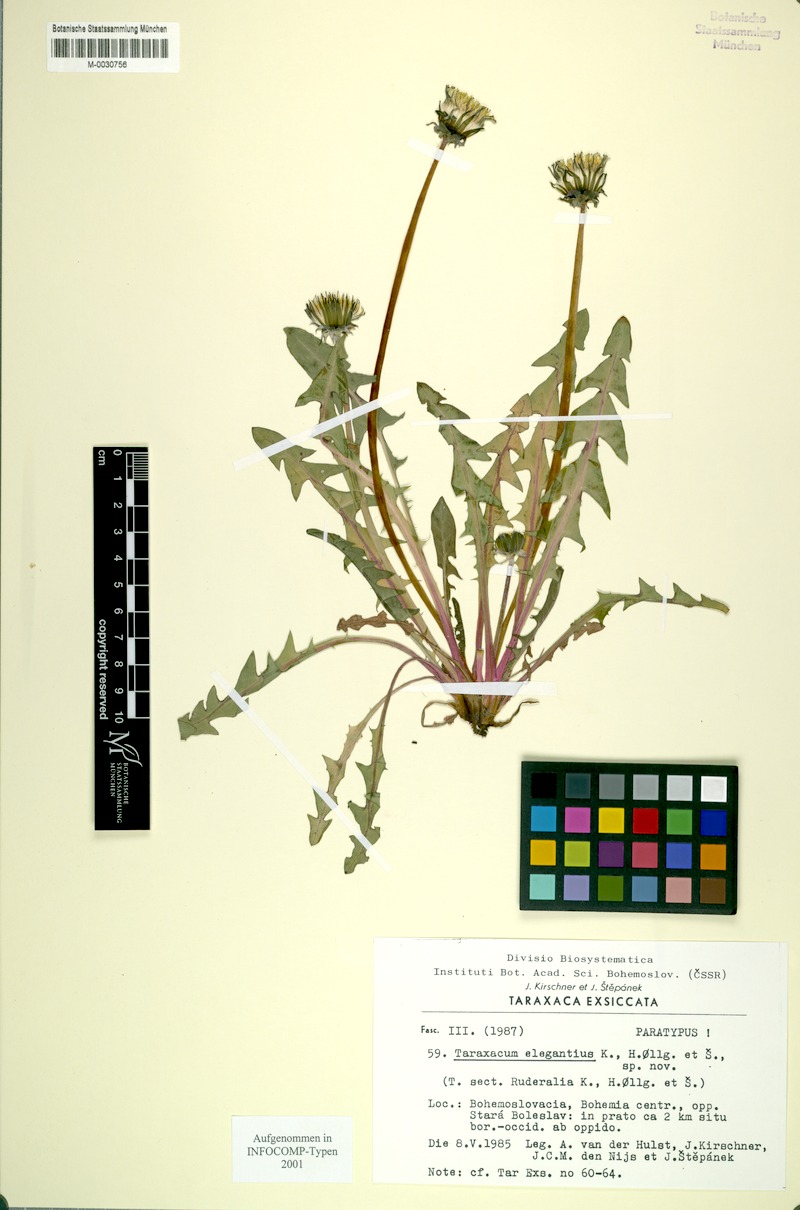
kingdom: Plantae
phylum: Tracheophyta
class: Magnoliopsida
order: Asterales
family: Asteraceae
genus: Taraxacum
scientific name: Taraxacum elegantius
